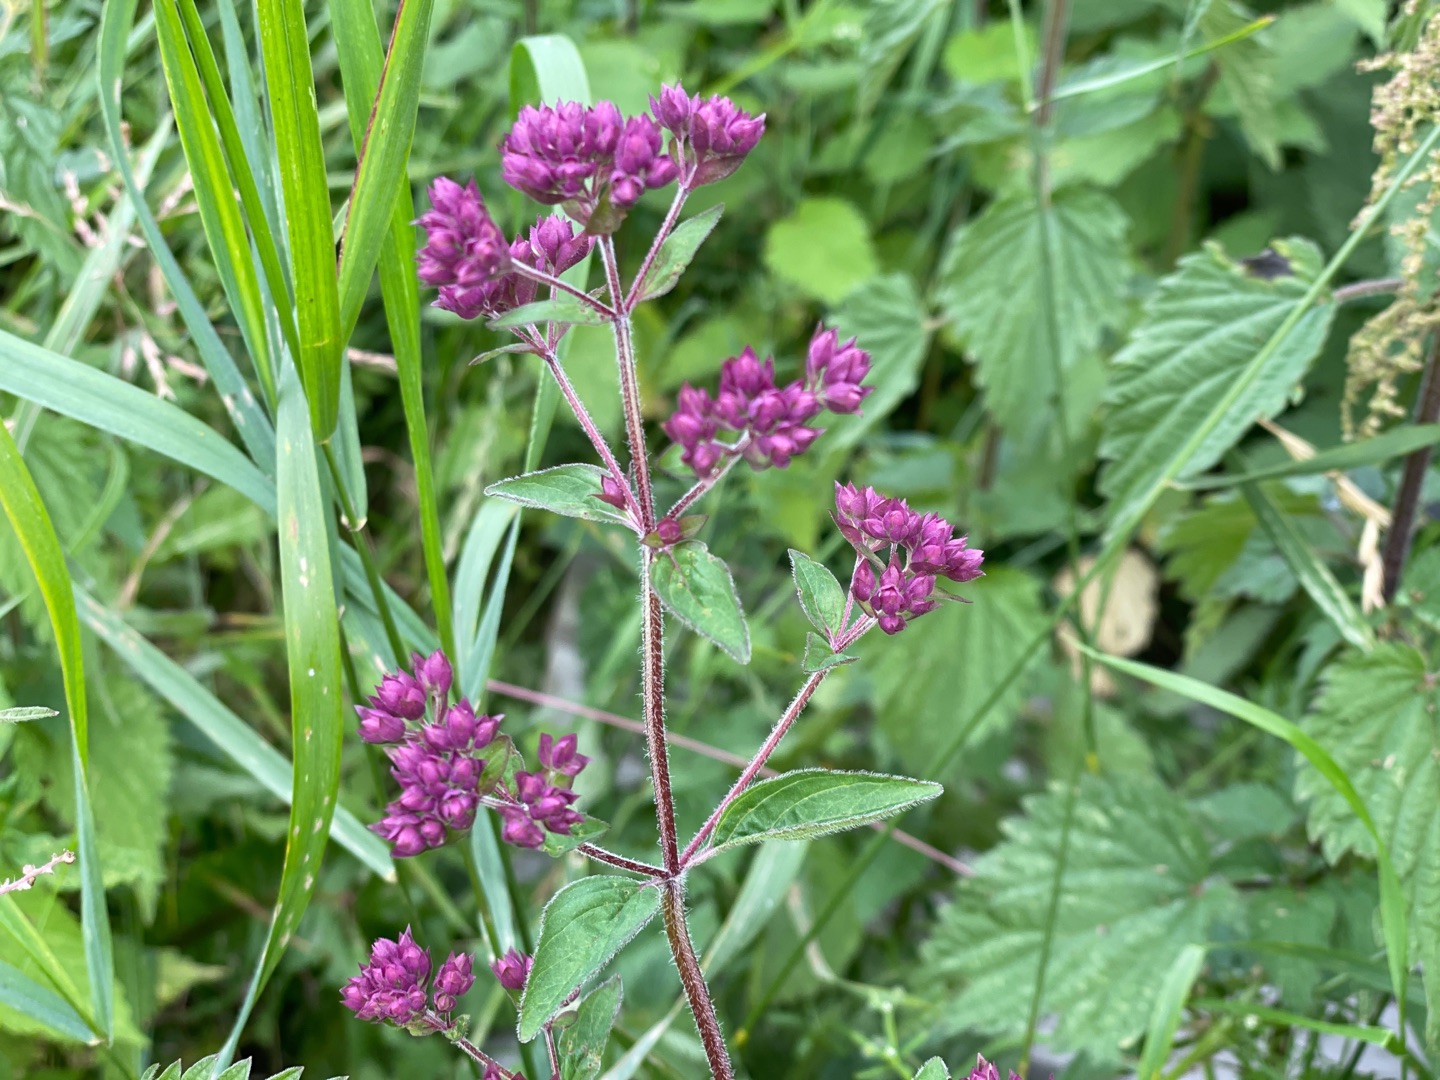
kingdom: Plantae
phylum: Tracheophyta
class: Magnoliopsida
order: Lamiales
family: Lamiaceae
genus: Origanum
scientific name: Origanum vulgare
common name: Merian
